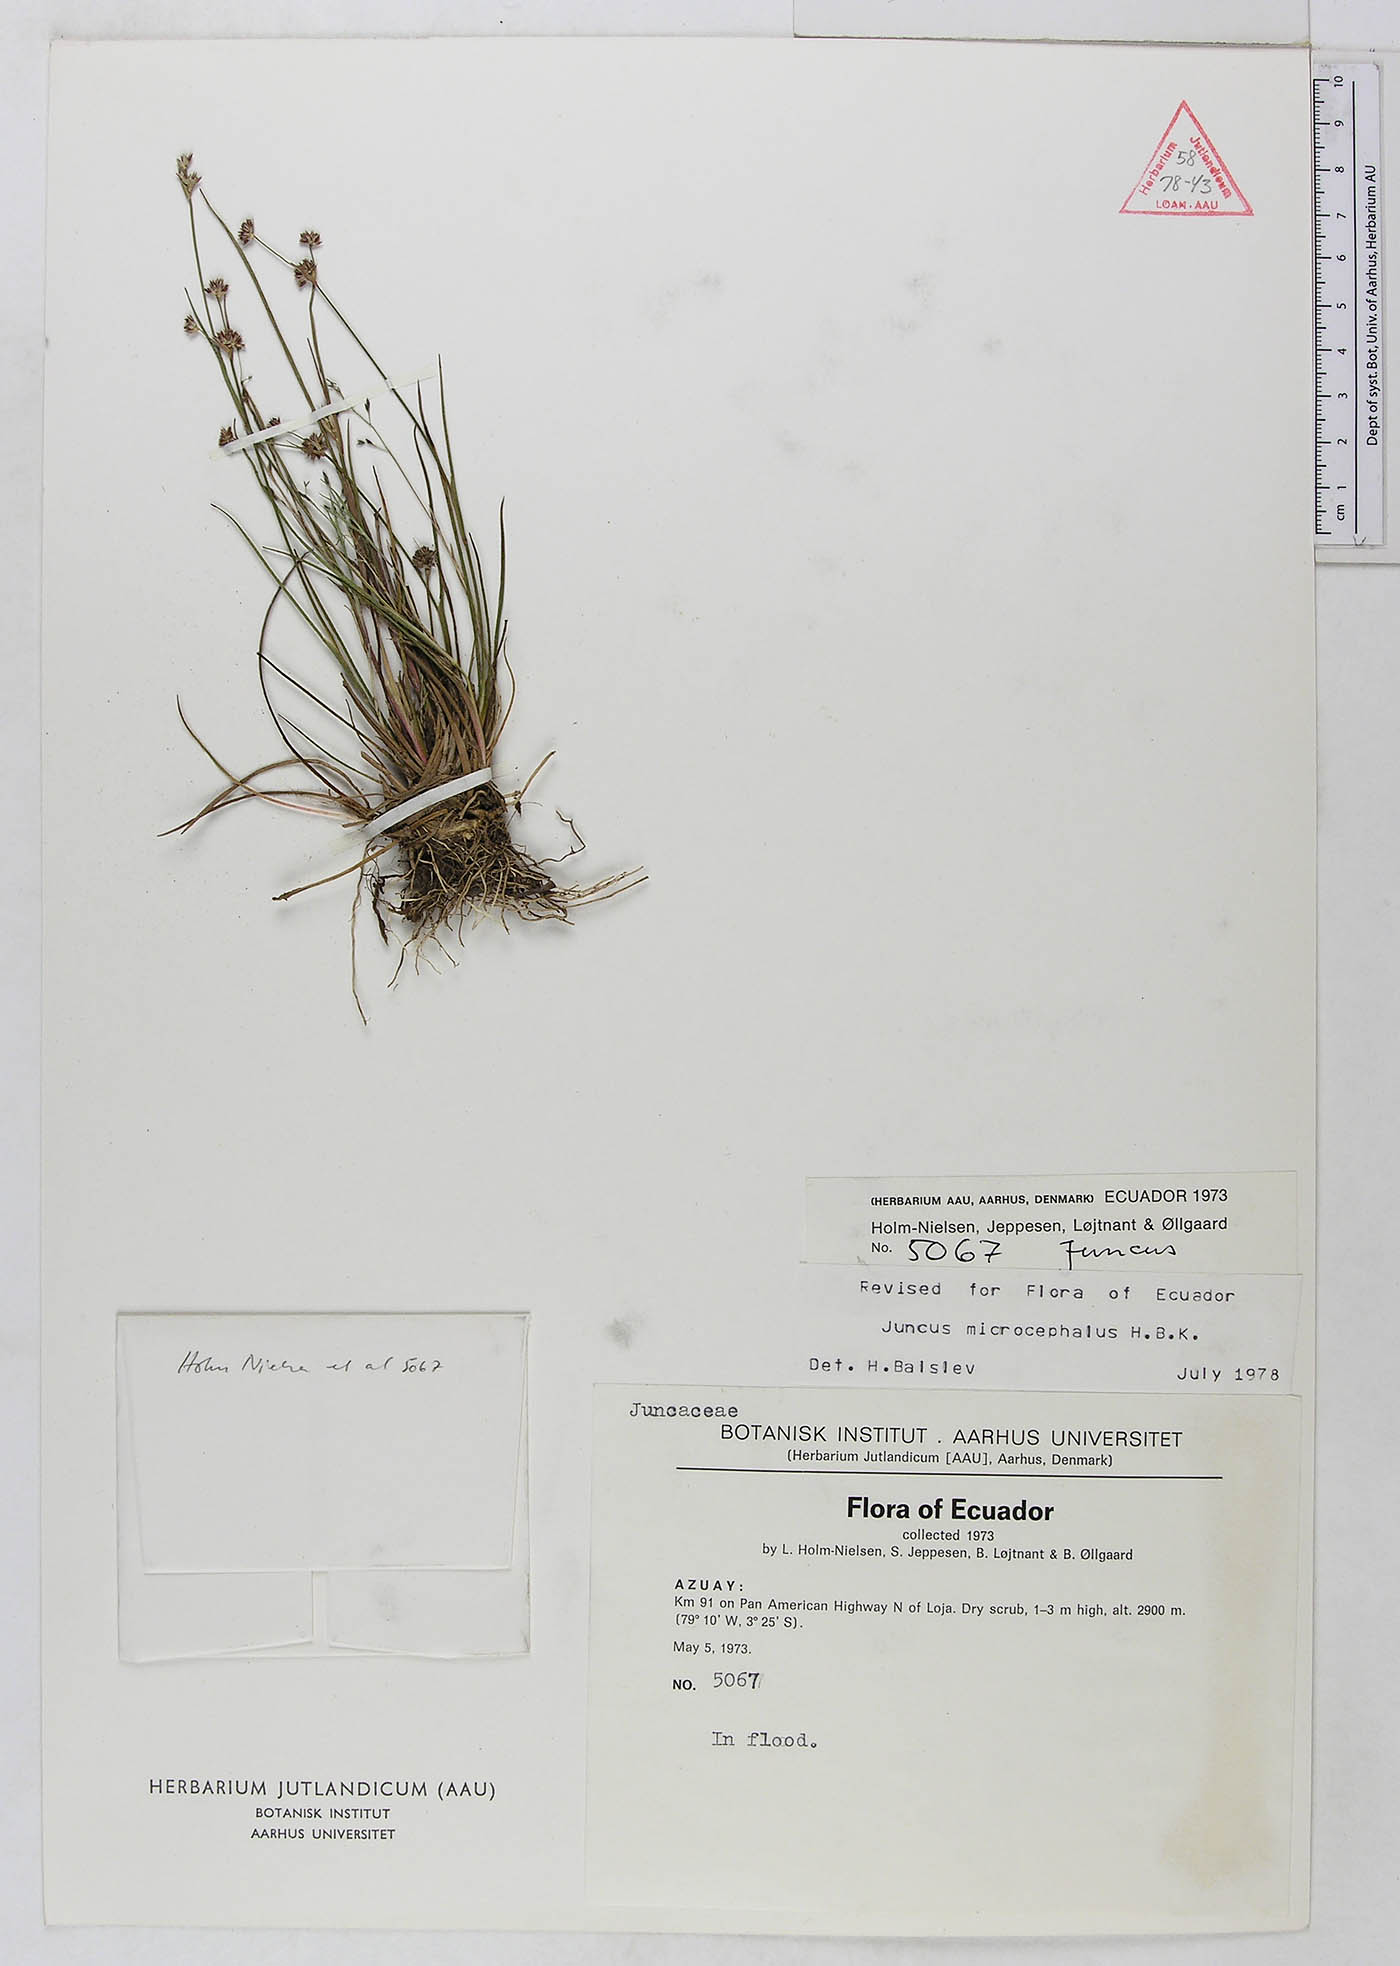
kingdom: Plantae
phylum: Tracheophyta
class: Liliopsida
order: Poales
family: Juncaceae
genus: Juncus
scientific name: Juncus microcephalus
